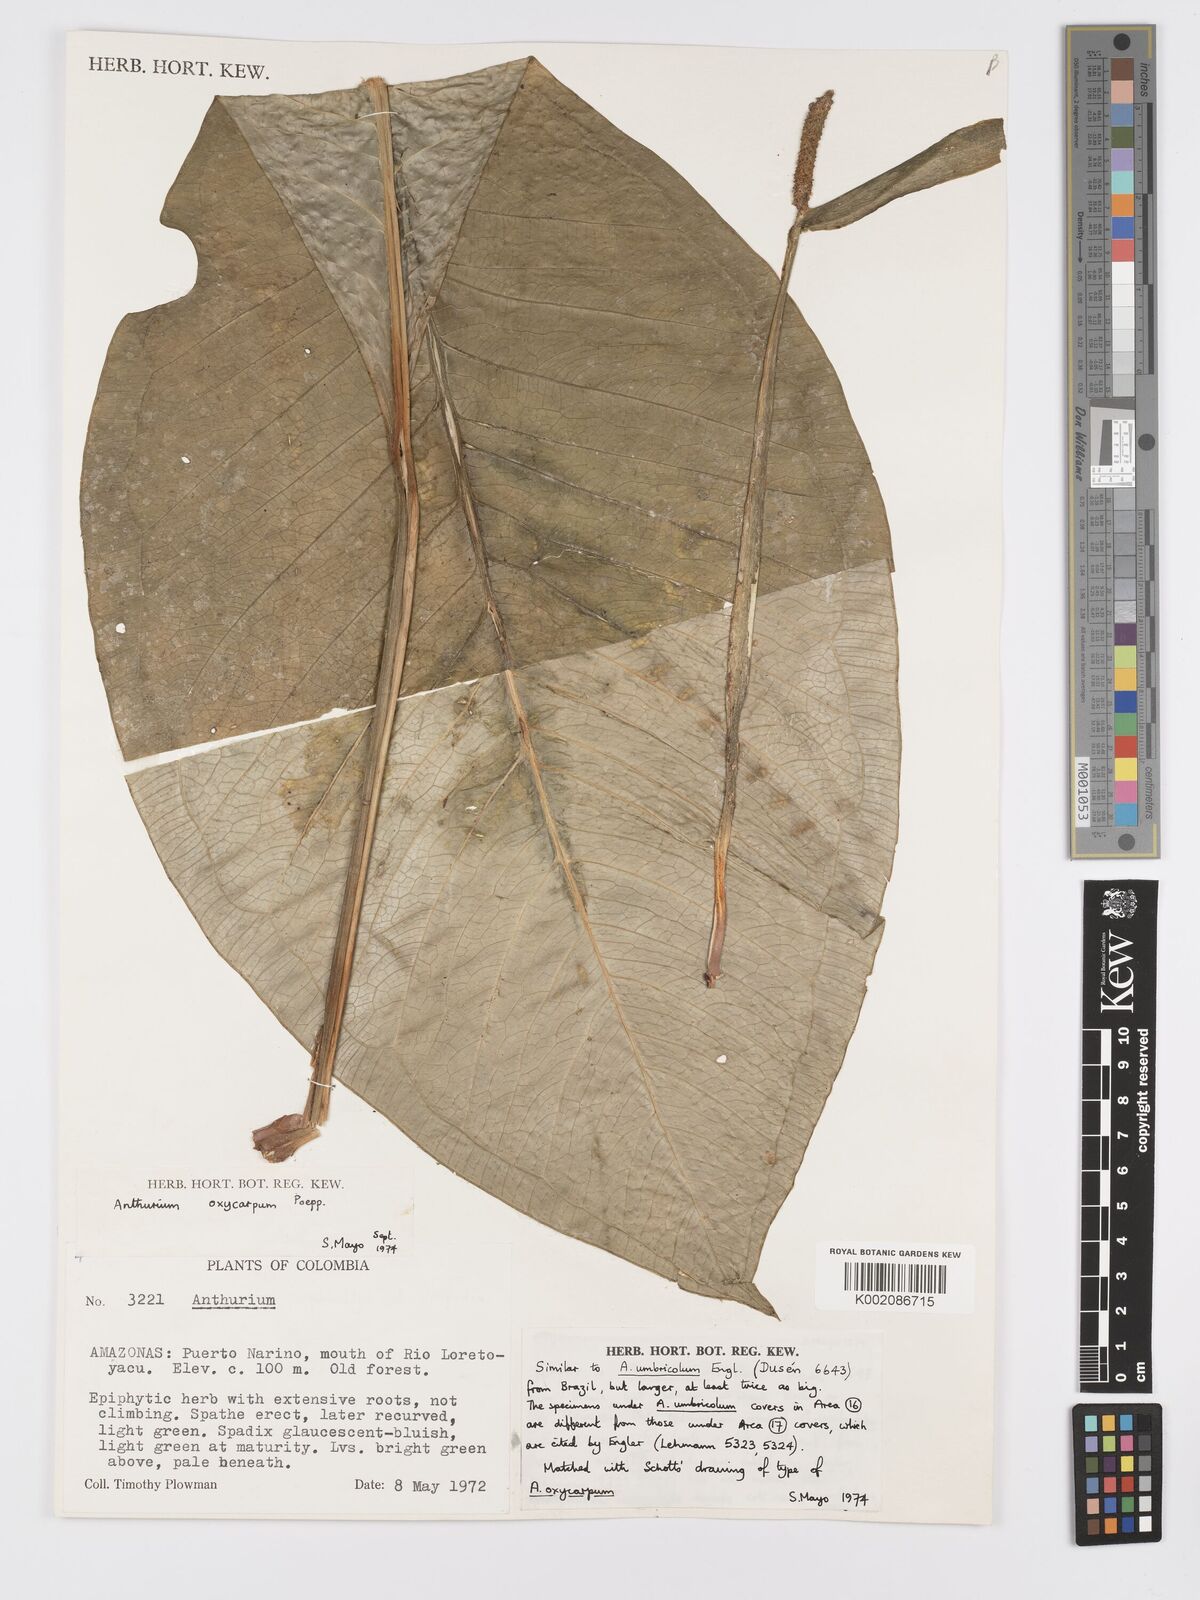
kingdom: Plantae
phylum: Tracheophyta
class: Liliopsida
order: Alismatales
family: Araceae
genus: Anthurium
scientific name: Anthurium oxycarpum
